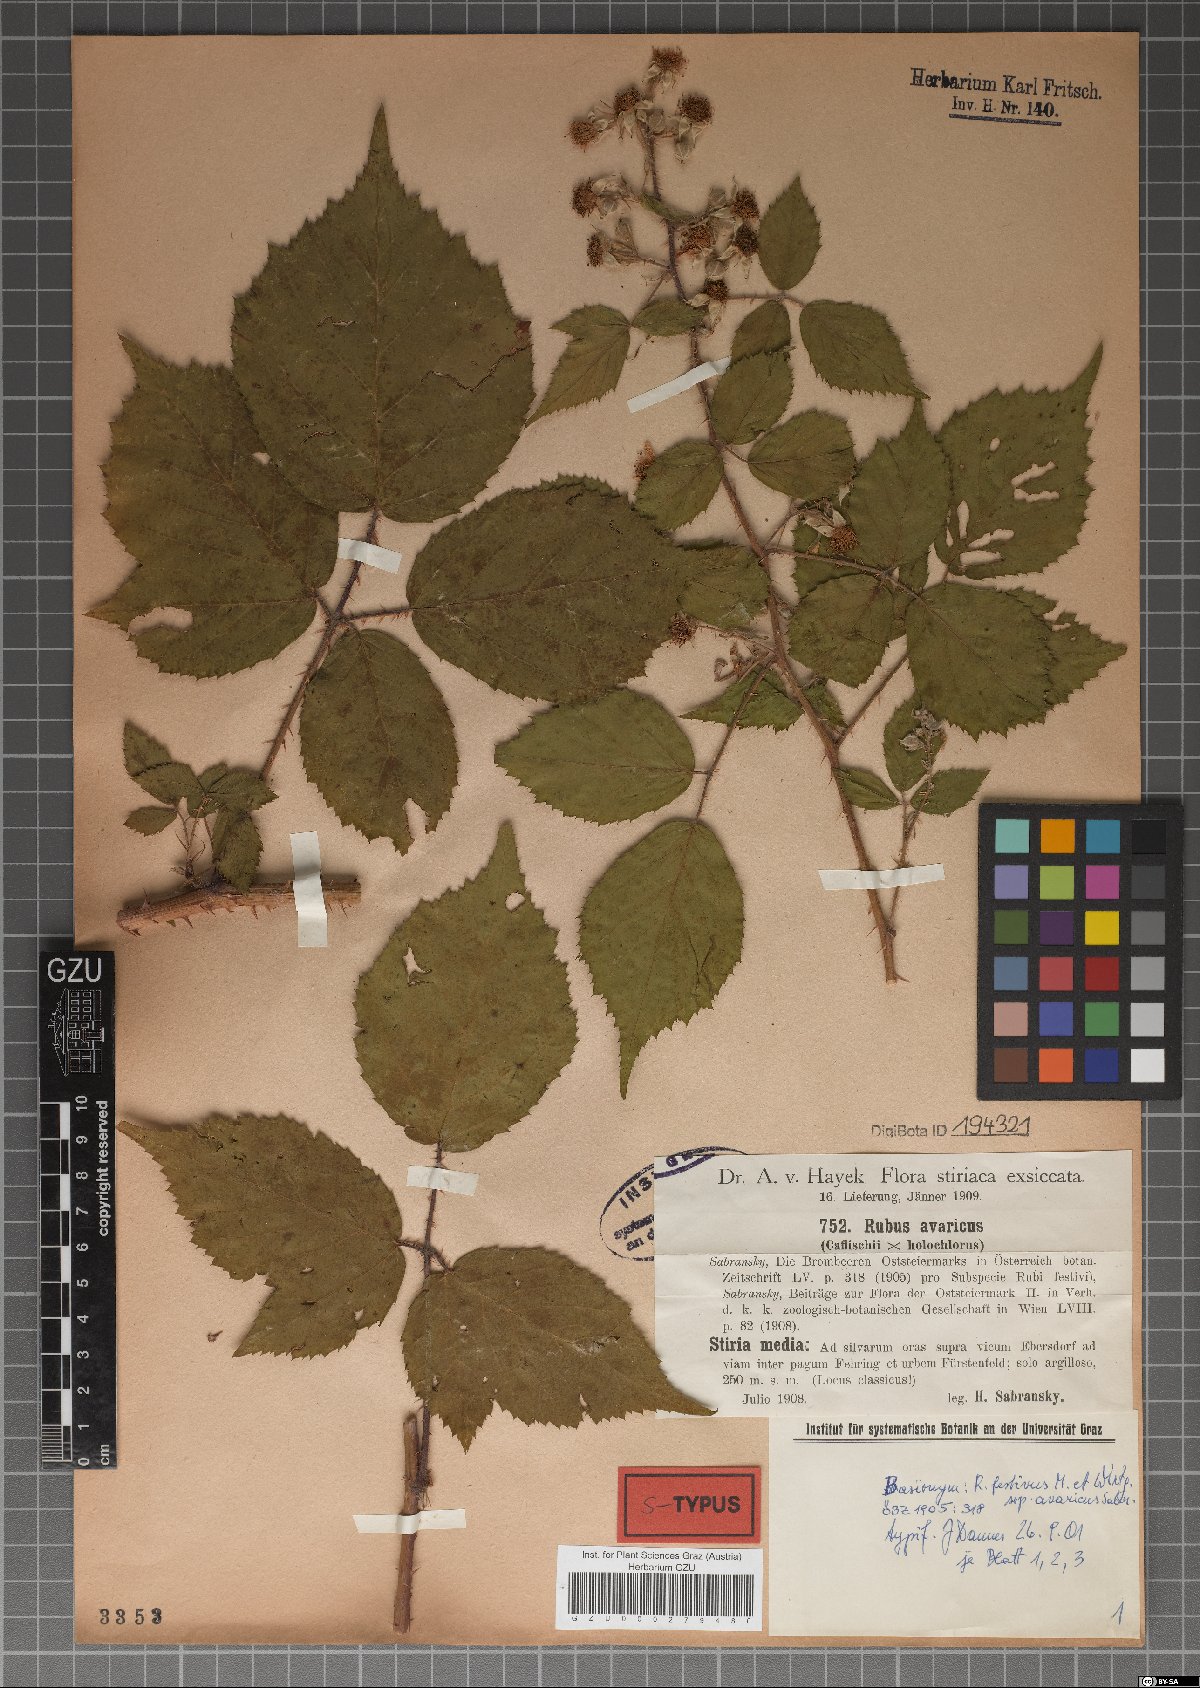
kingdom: Plantae
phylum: Tracheophyta
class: Magnoliopsida
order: Rosales
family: Rosaceae
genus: Rubus
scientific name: Rubus avaricus
